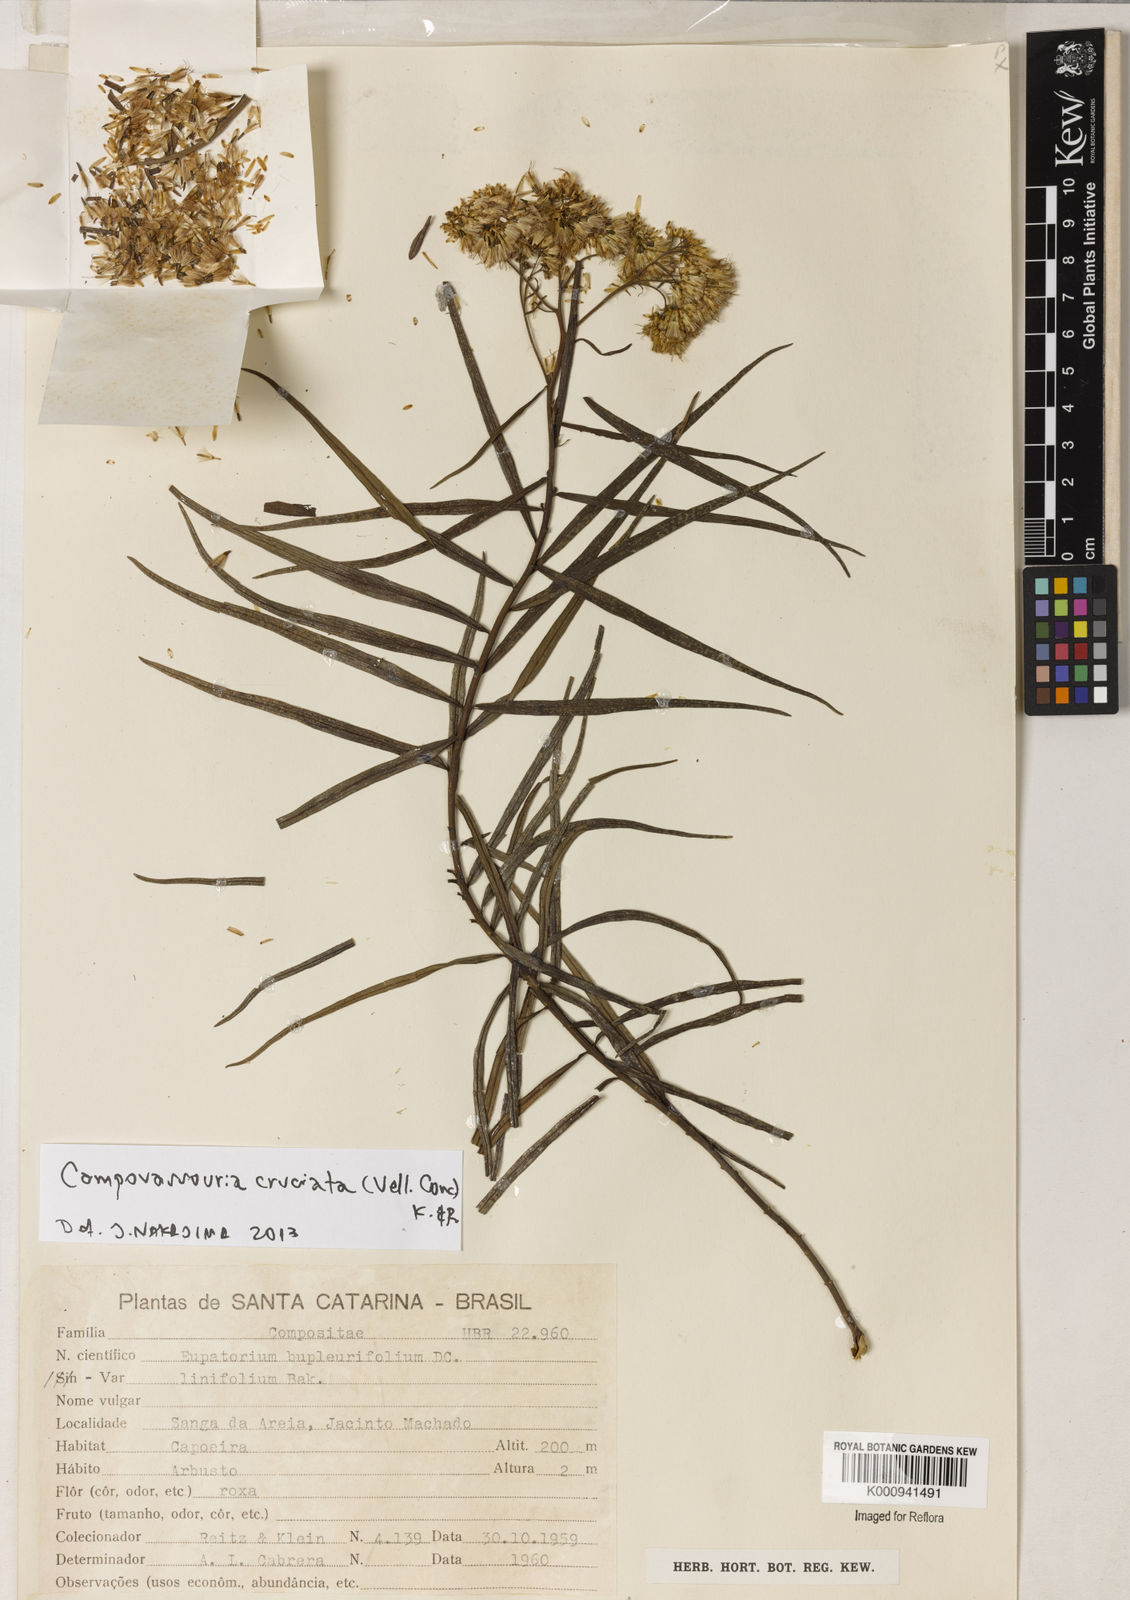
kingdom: Plantae
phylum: Tracheophyta
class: Magnoliopsida
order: Asterales
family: Asteraceae
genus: Campovassouria
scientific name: Campovassouria cruciata
